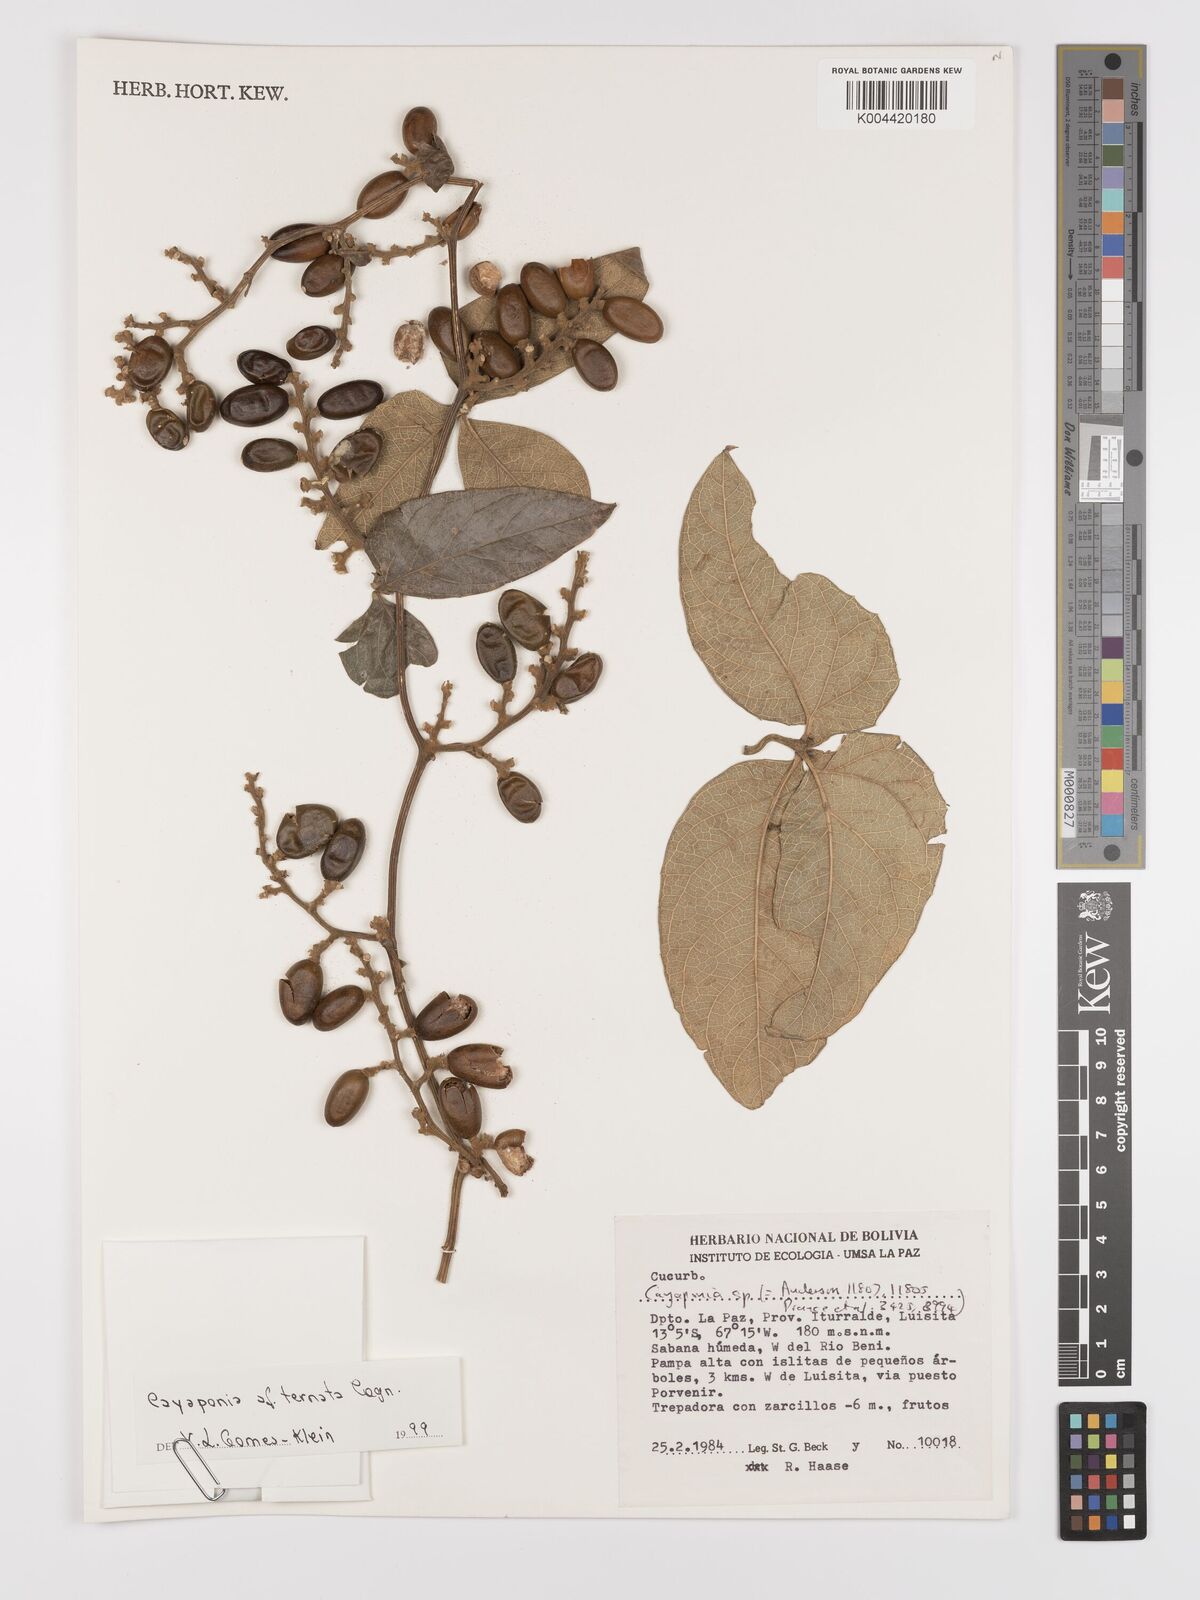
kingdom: Plantae
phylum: Tracheophyta
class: Magnoliopsida
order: Cucurbitales
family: Cucurbitaceae
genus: Cayaponia
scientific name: Cayaponia ternata
